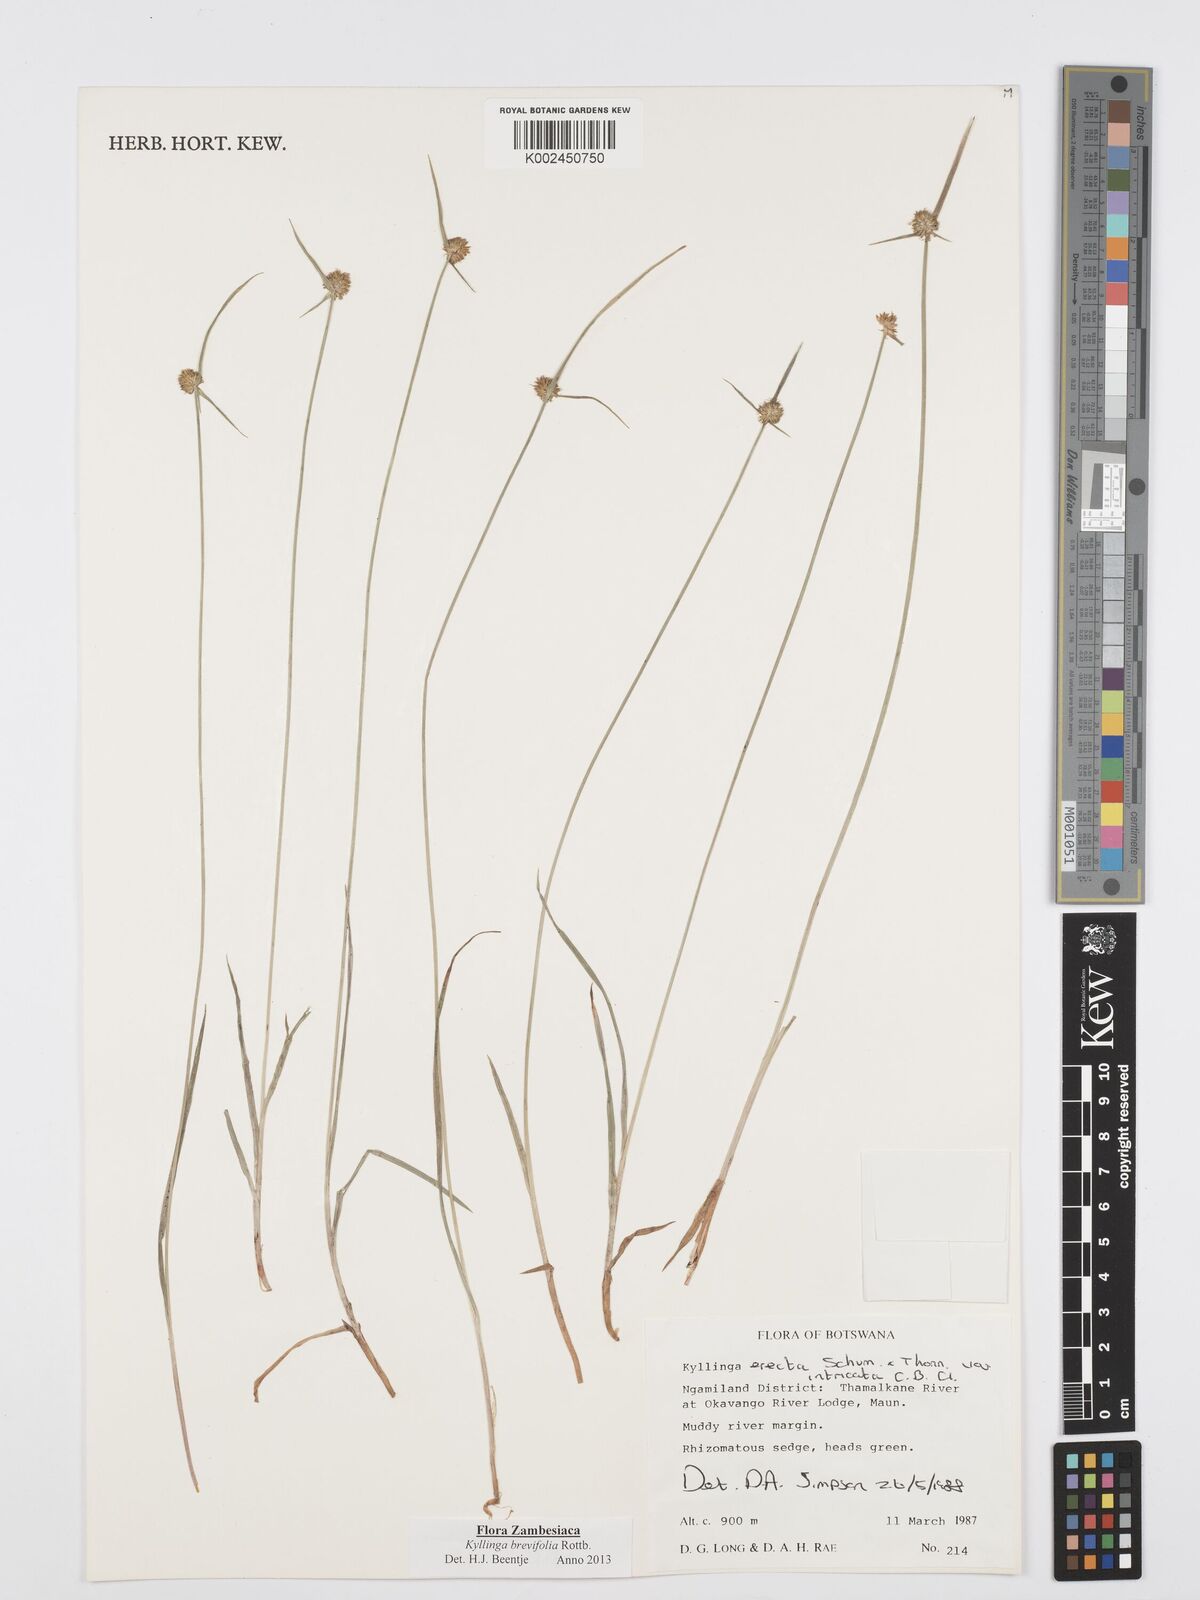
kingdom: Plantae
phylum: Tracheophyta
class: Liliopsida
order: Poales
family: Cyperaceae
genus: Cyperus
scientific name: Cyperus brevifolius
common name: Globe kyllinga
